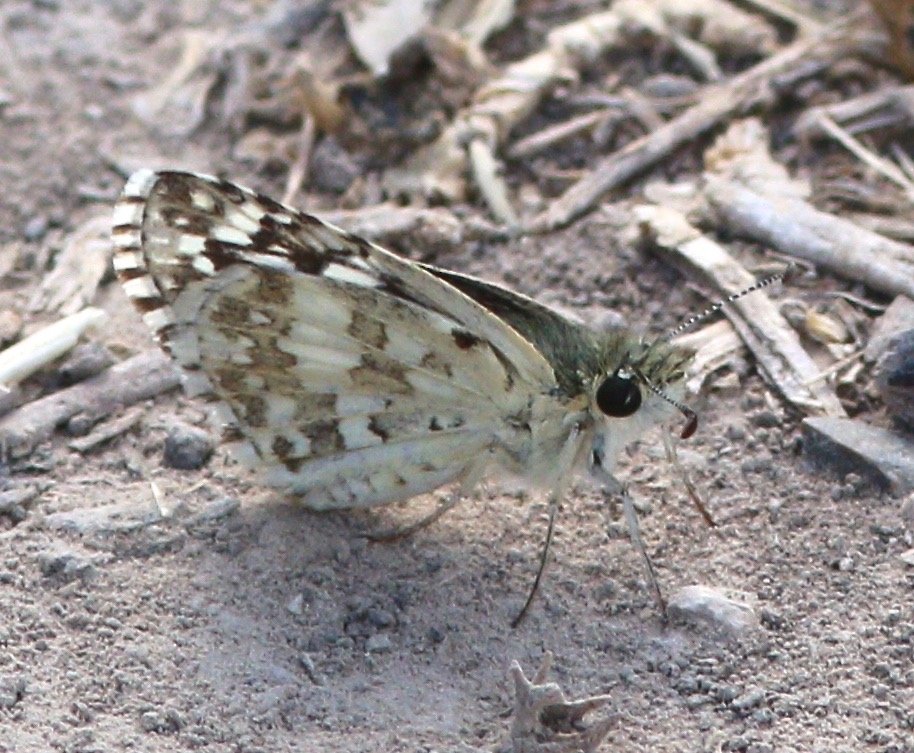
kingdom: Animalia
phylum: Arthropoda
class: Insecta
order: Lepidoptera
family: Hesperiidae
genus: Pyrgus
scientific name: Pyrgus communis
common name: White Checkered-Skipper
